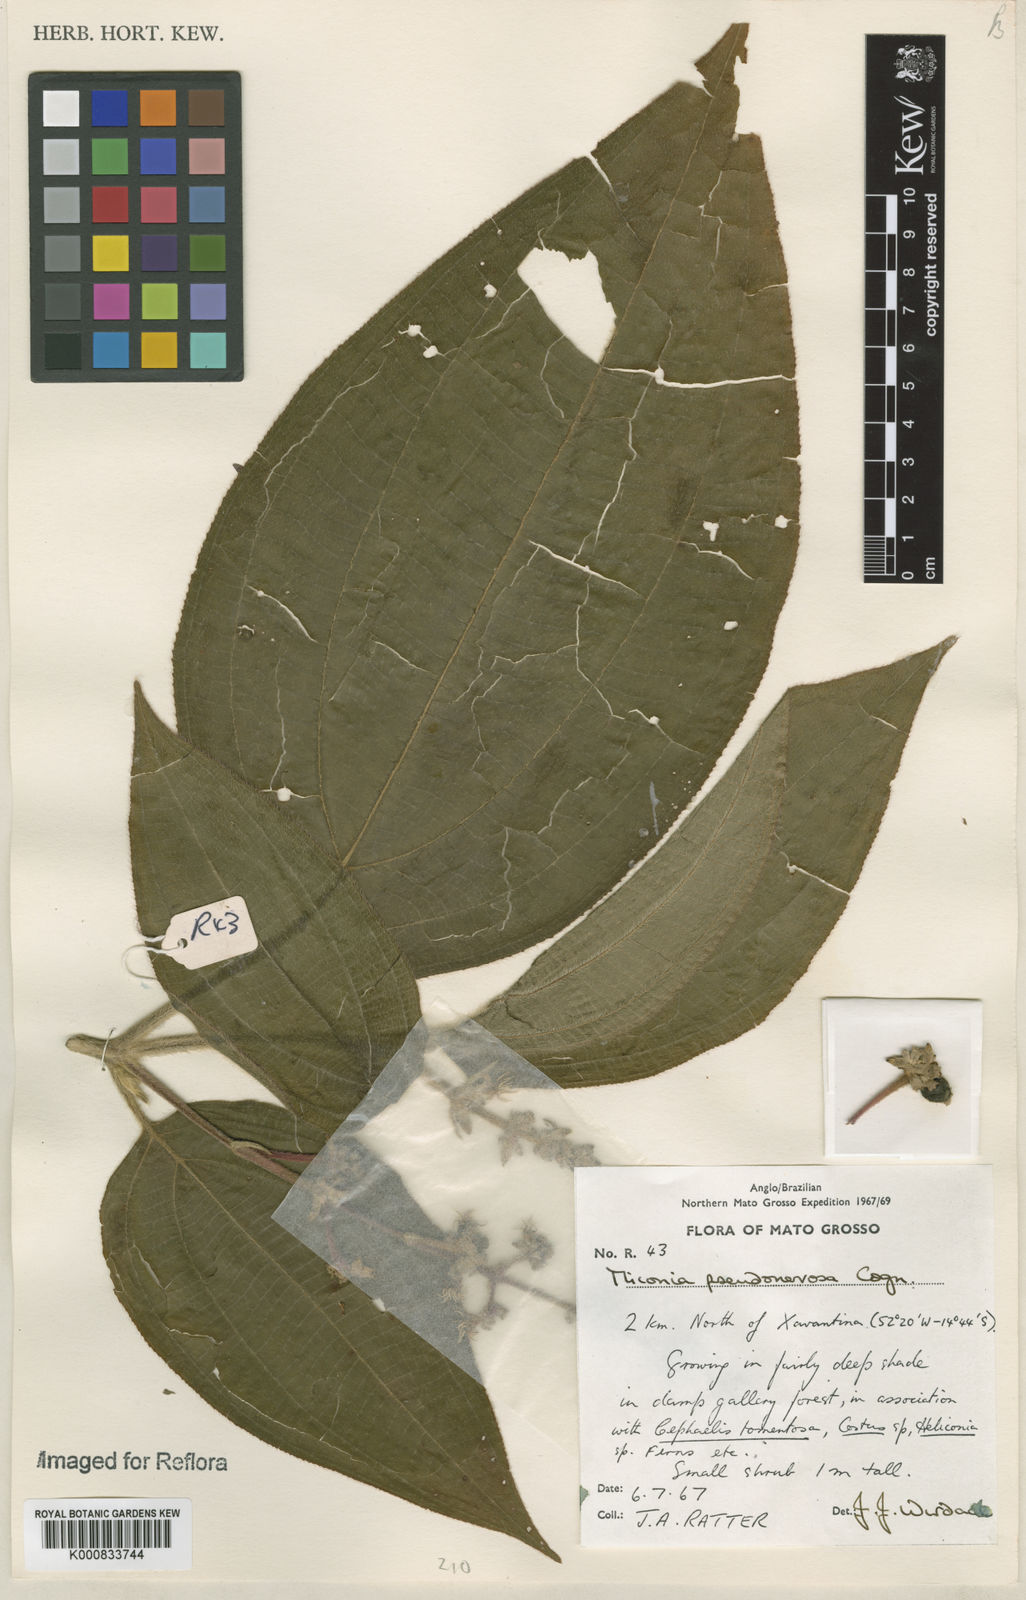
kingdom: Plantae
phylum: Tracheophyta
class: Magnoliopsida
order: Myrtales
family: Melastomataceae
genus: Miconia
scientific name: Miconia pseudonervosa
